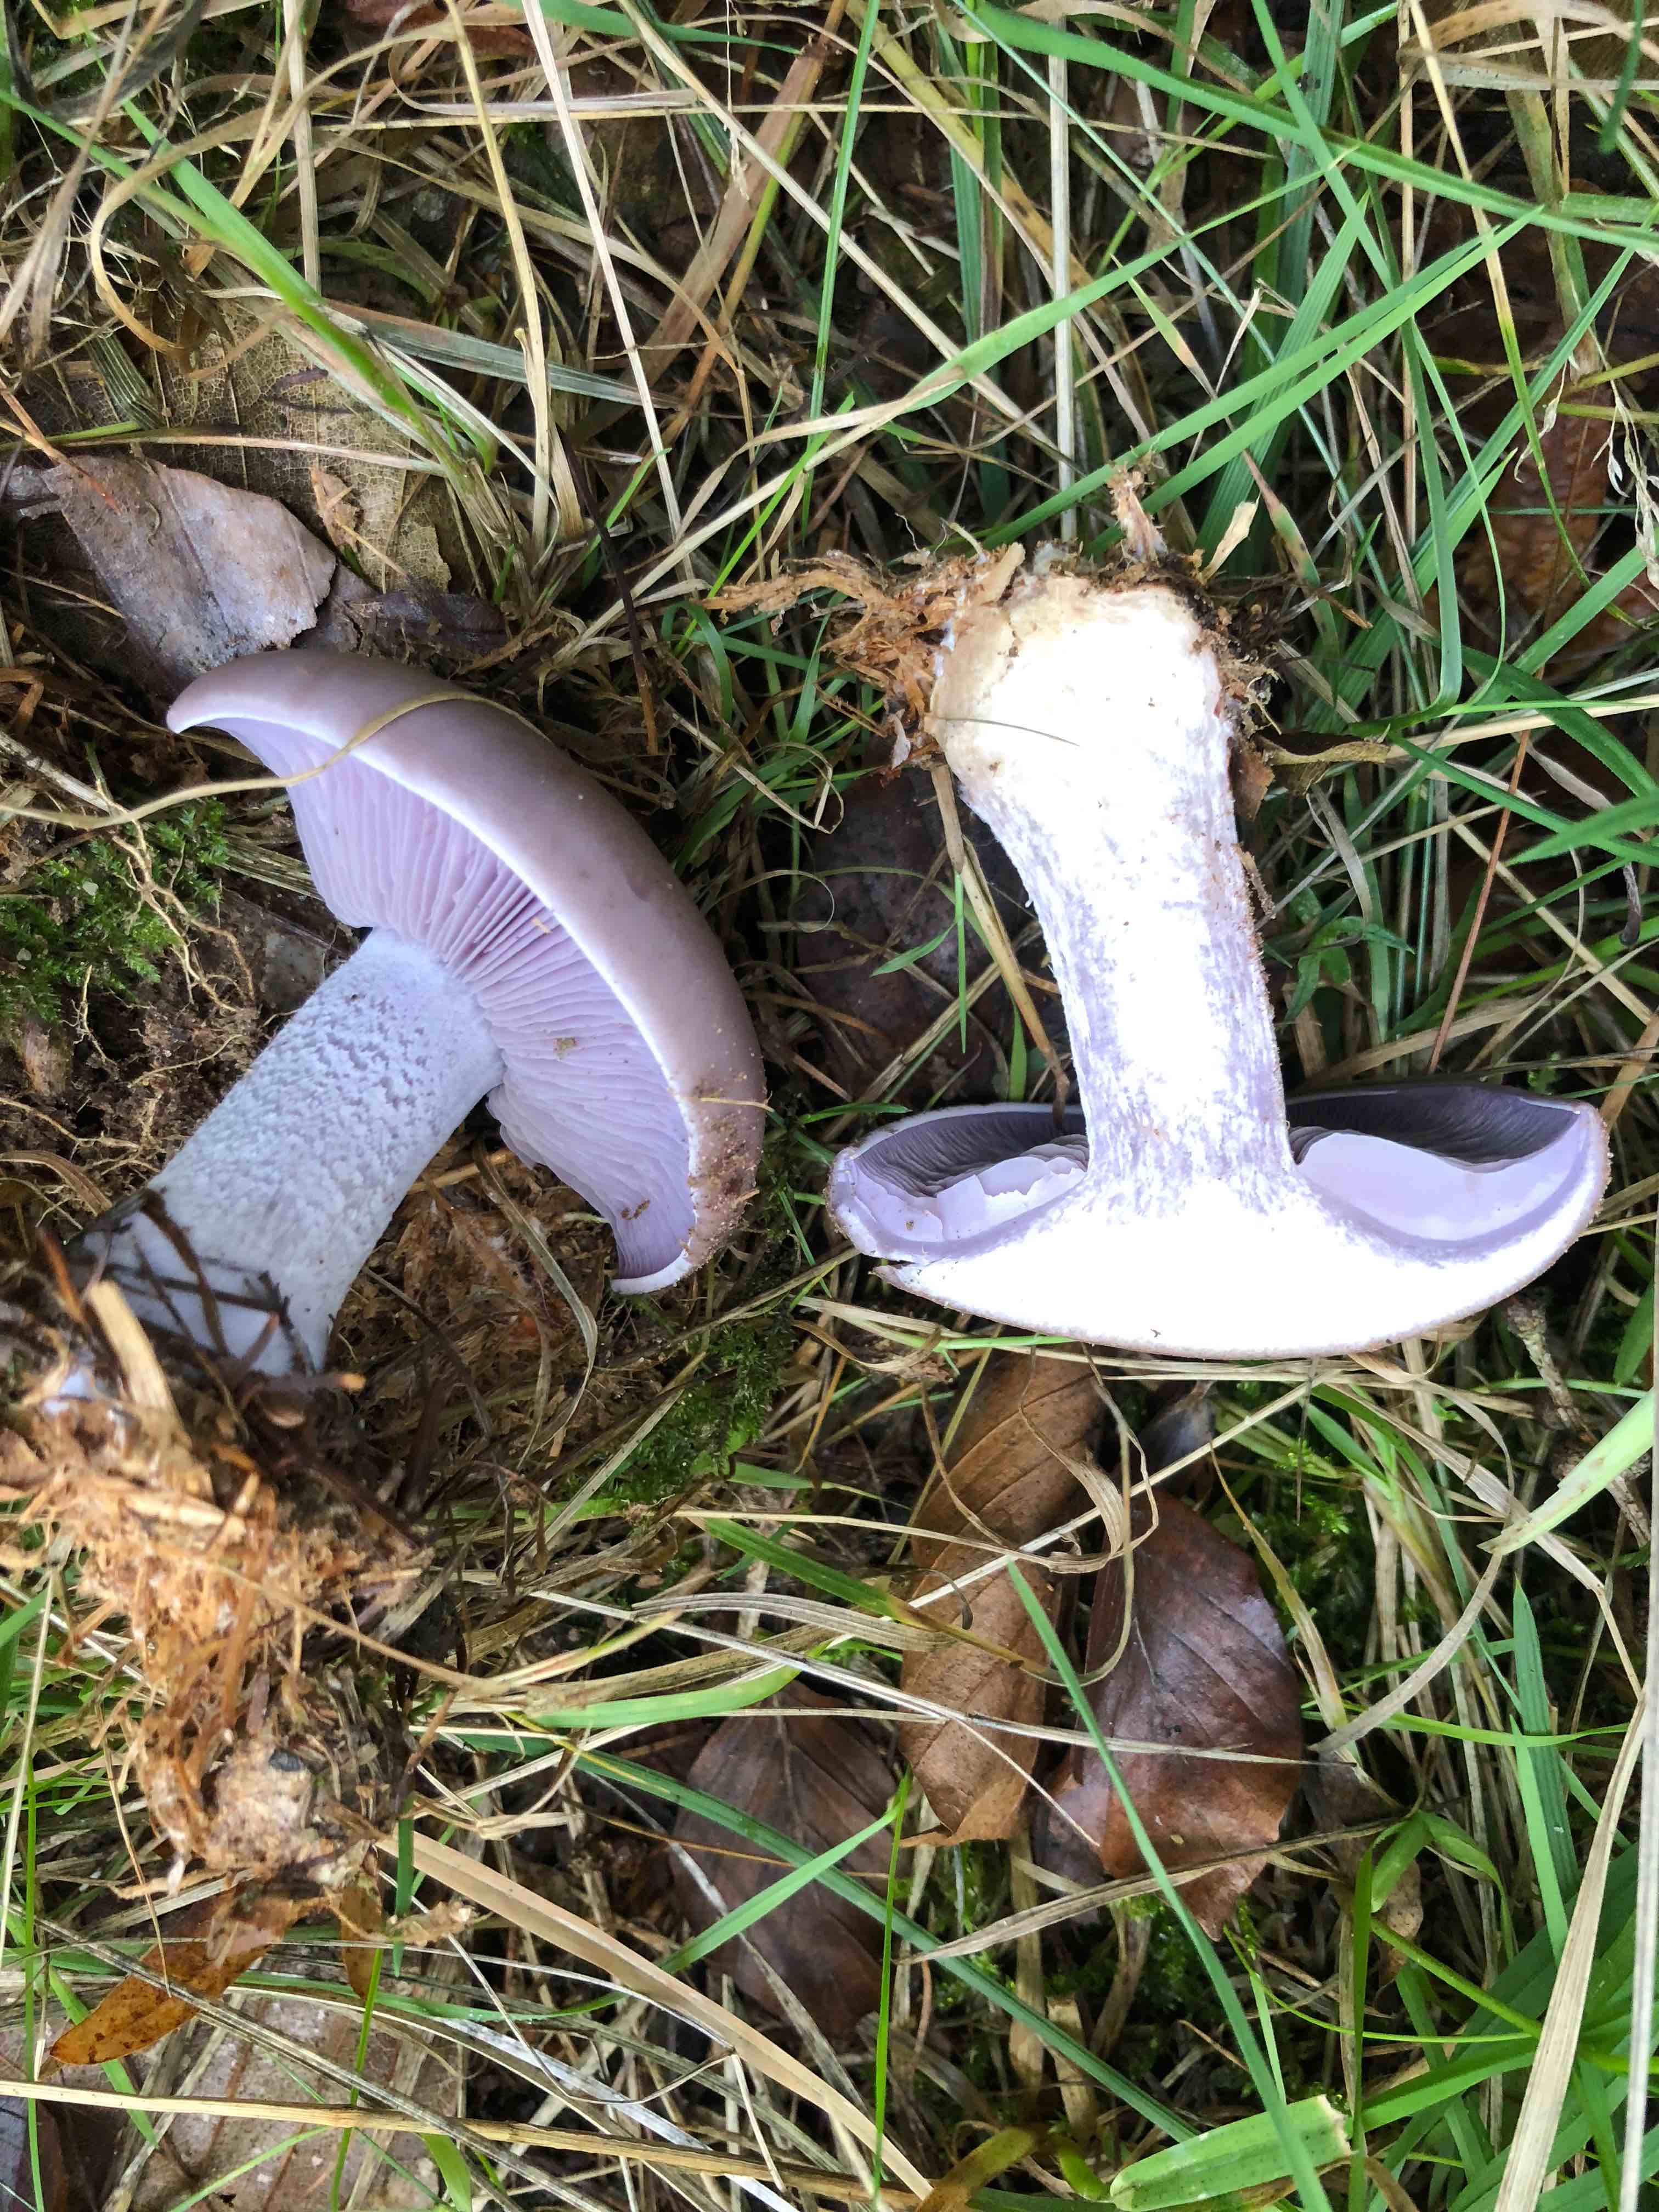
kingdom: Fungi
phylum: Basidiomycota
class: Agaricomycetes
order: Agaricales
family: Tricholomataceae
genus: Lepista
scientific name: Lepista nuda
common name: violet hekseringshat
